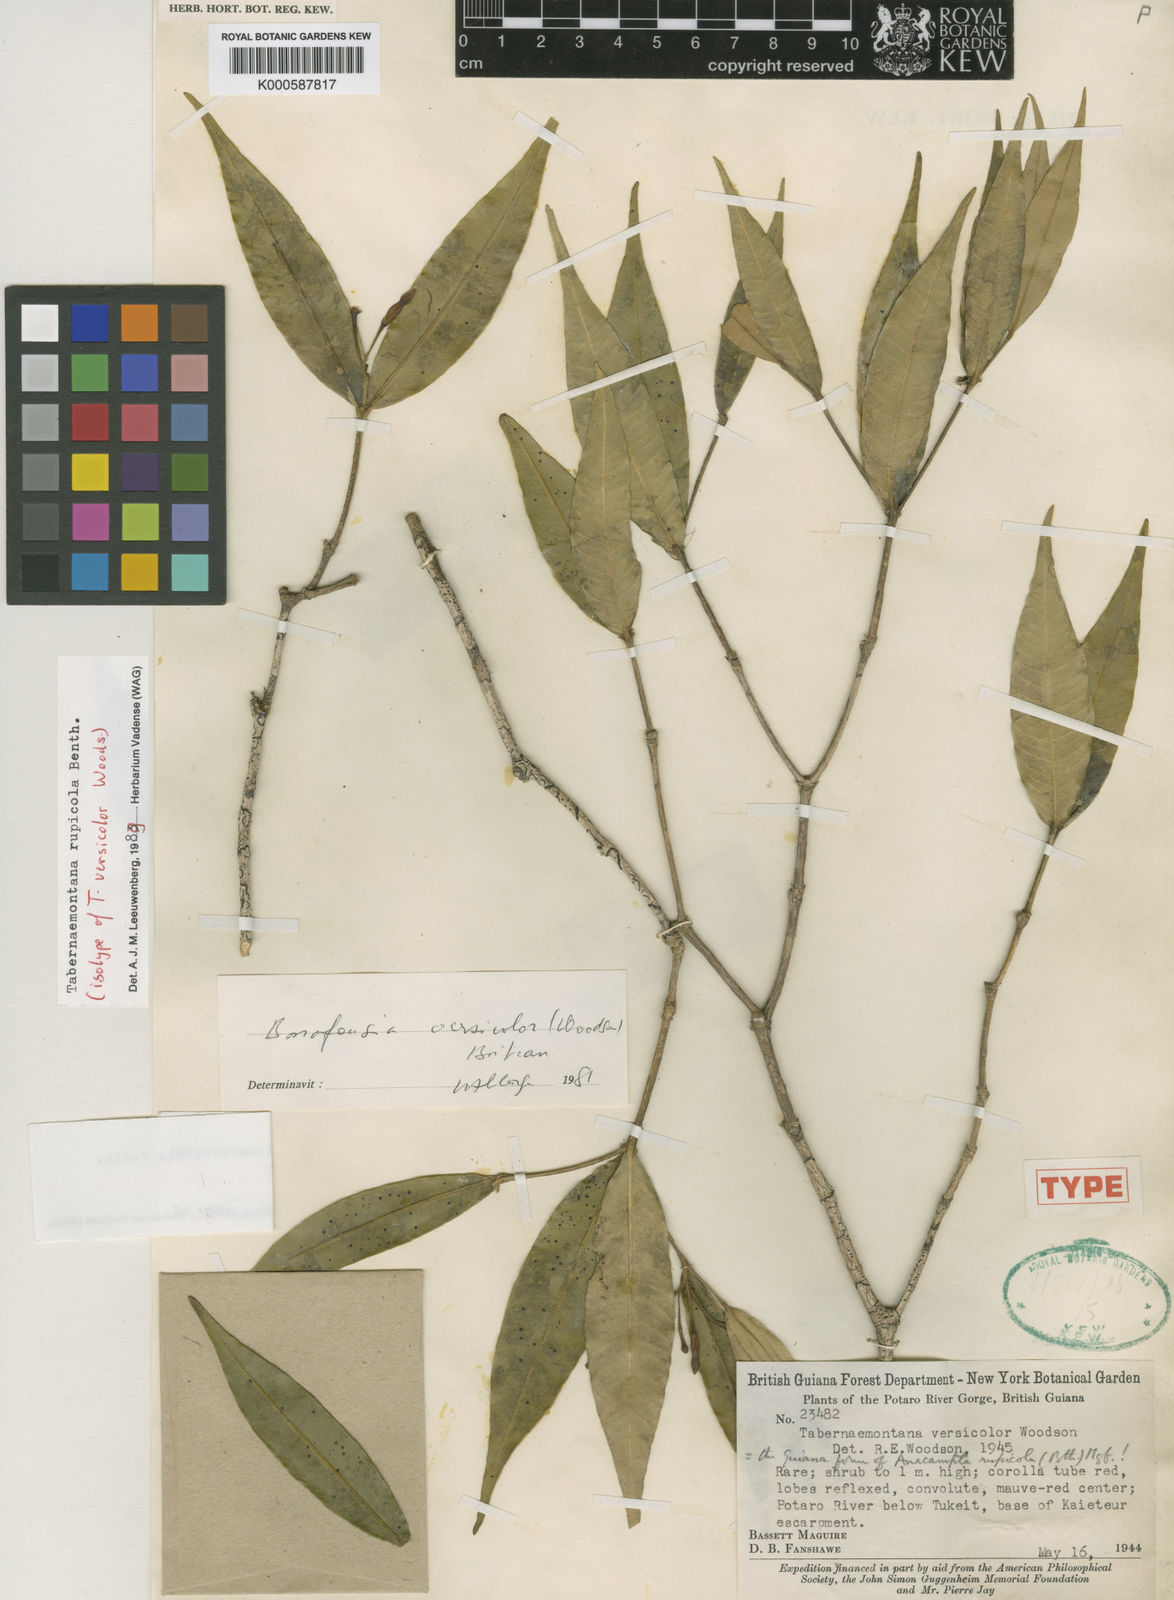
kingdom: Plantae
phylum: Tracheophyta
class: Magnoliopsida
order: Gentianales
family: Apocynaceae
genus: Tabernaemontana
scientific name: Tabernaemontana rupicola
